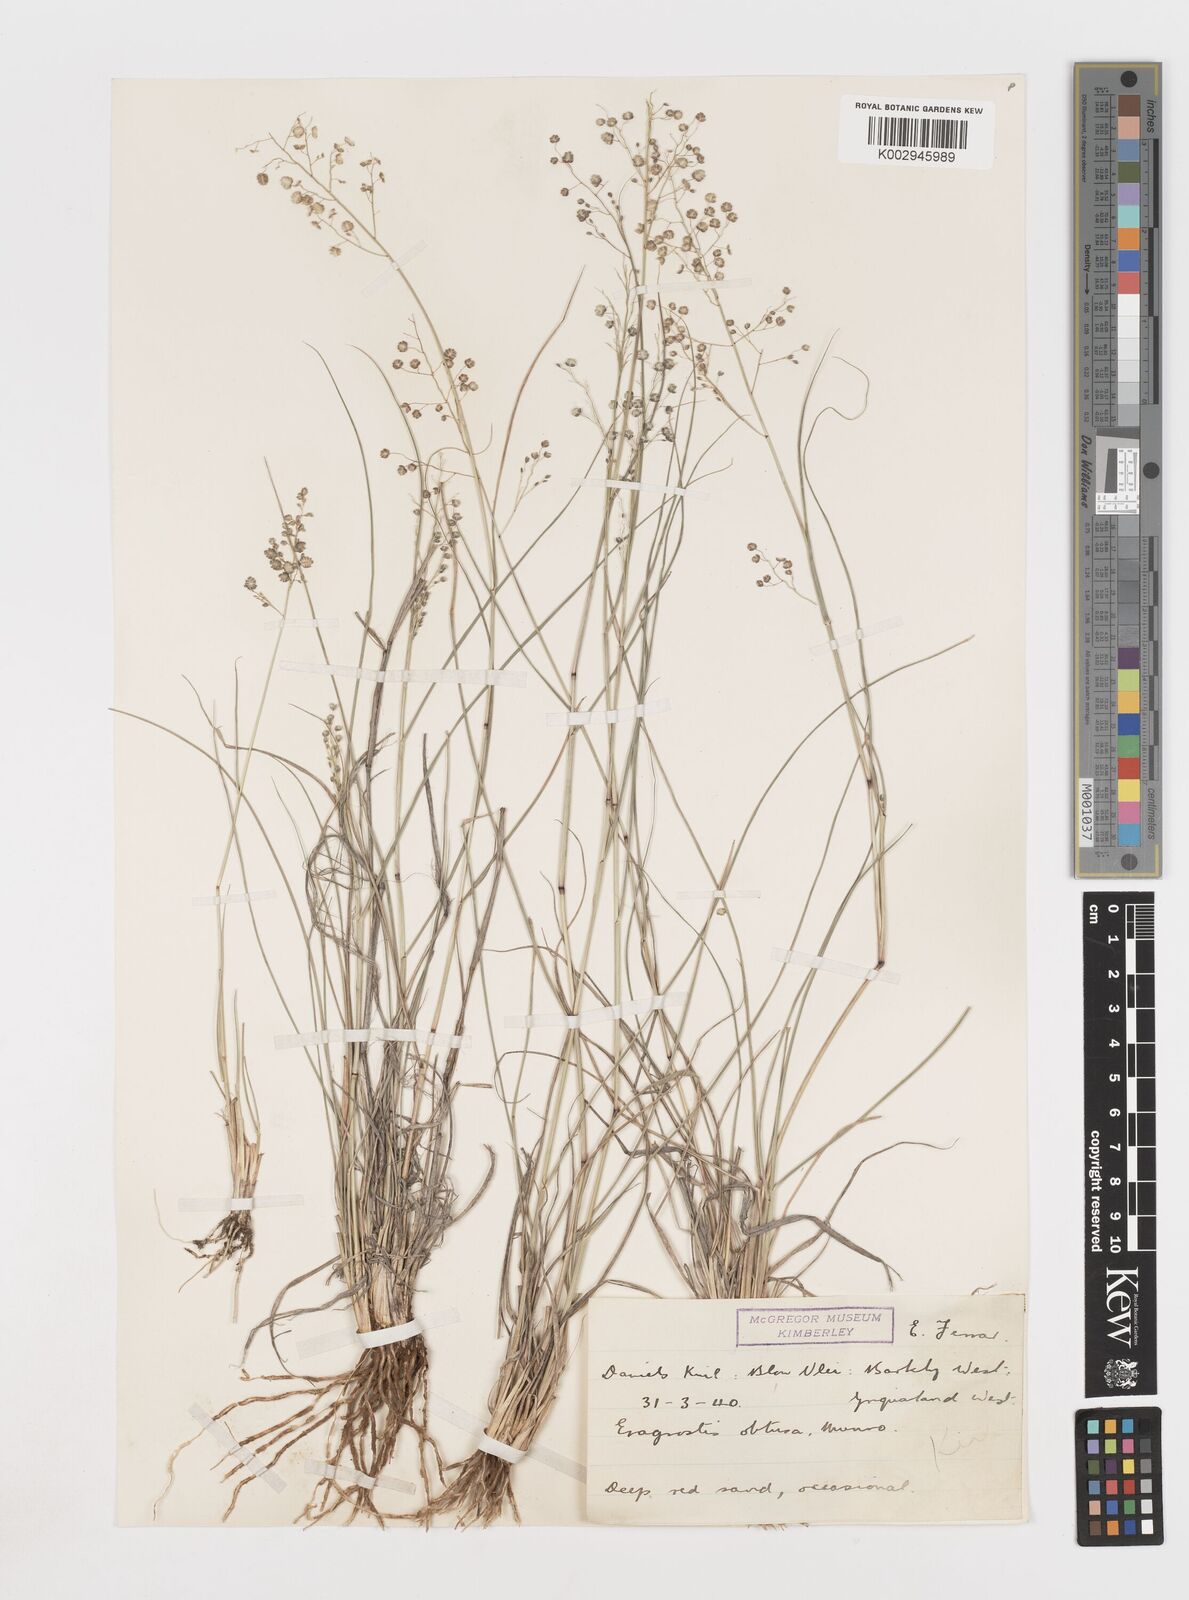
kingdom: Plantae
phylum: Tracheophyta
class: Liliopsida
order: Poales
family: Poaceae
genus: Eragrostis
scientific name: Eragrostis obtusa
